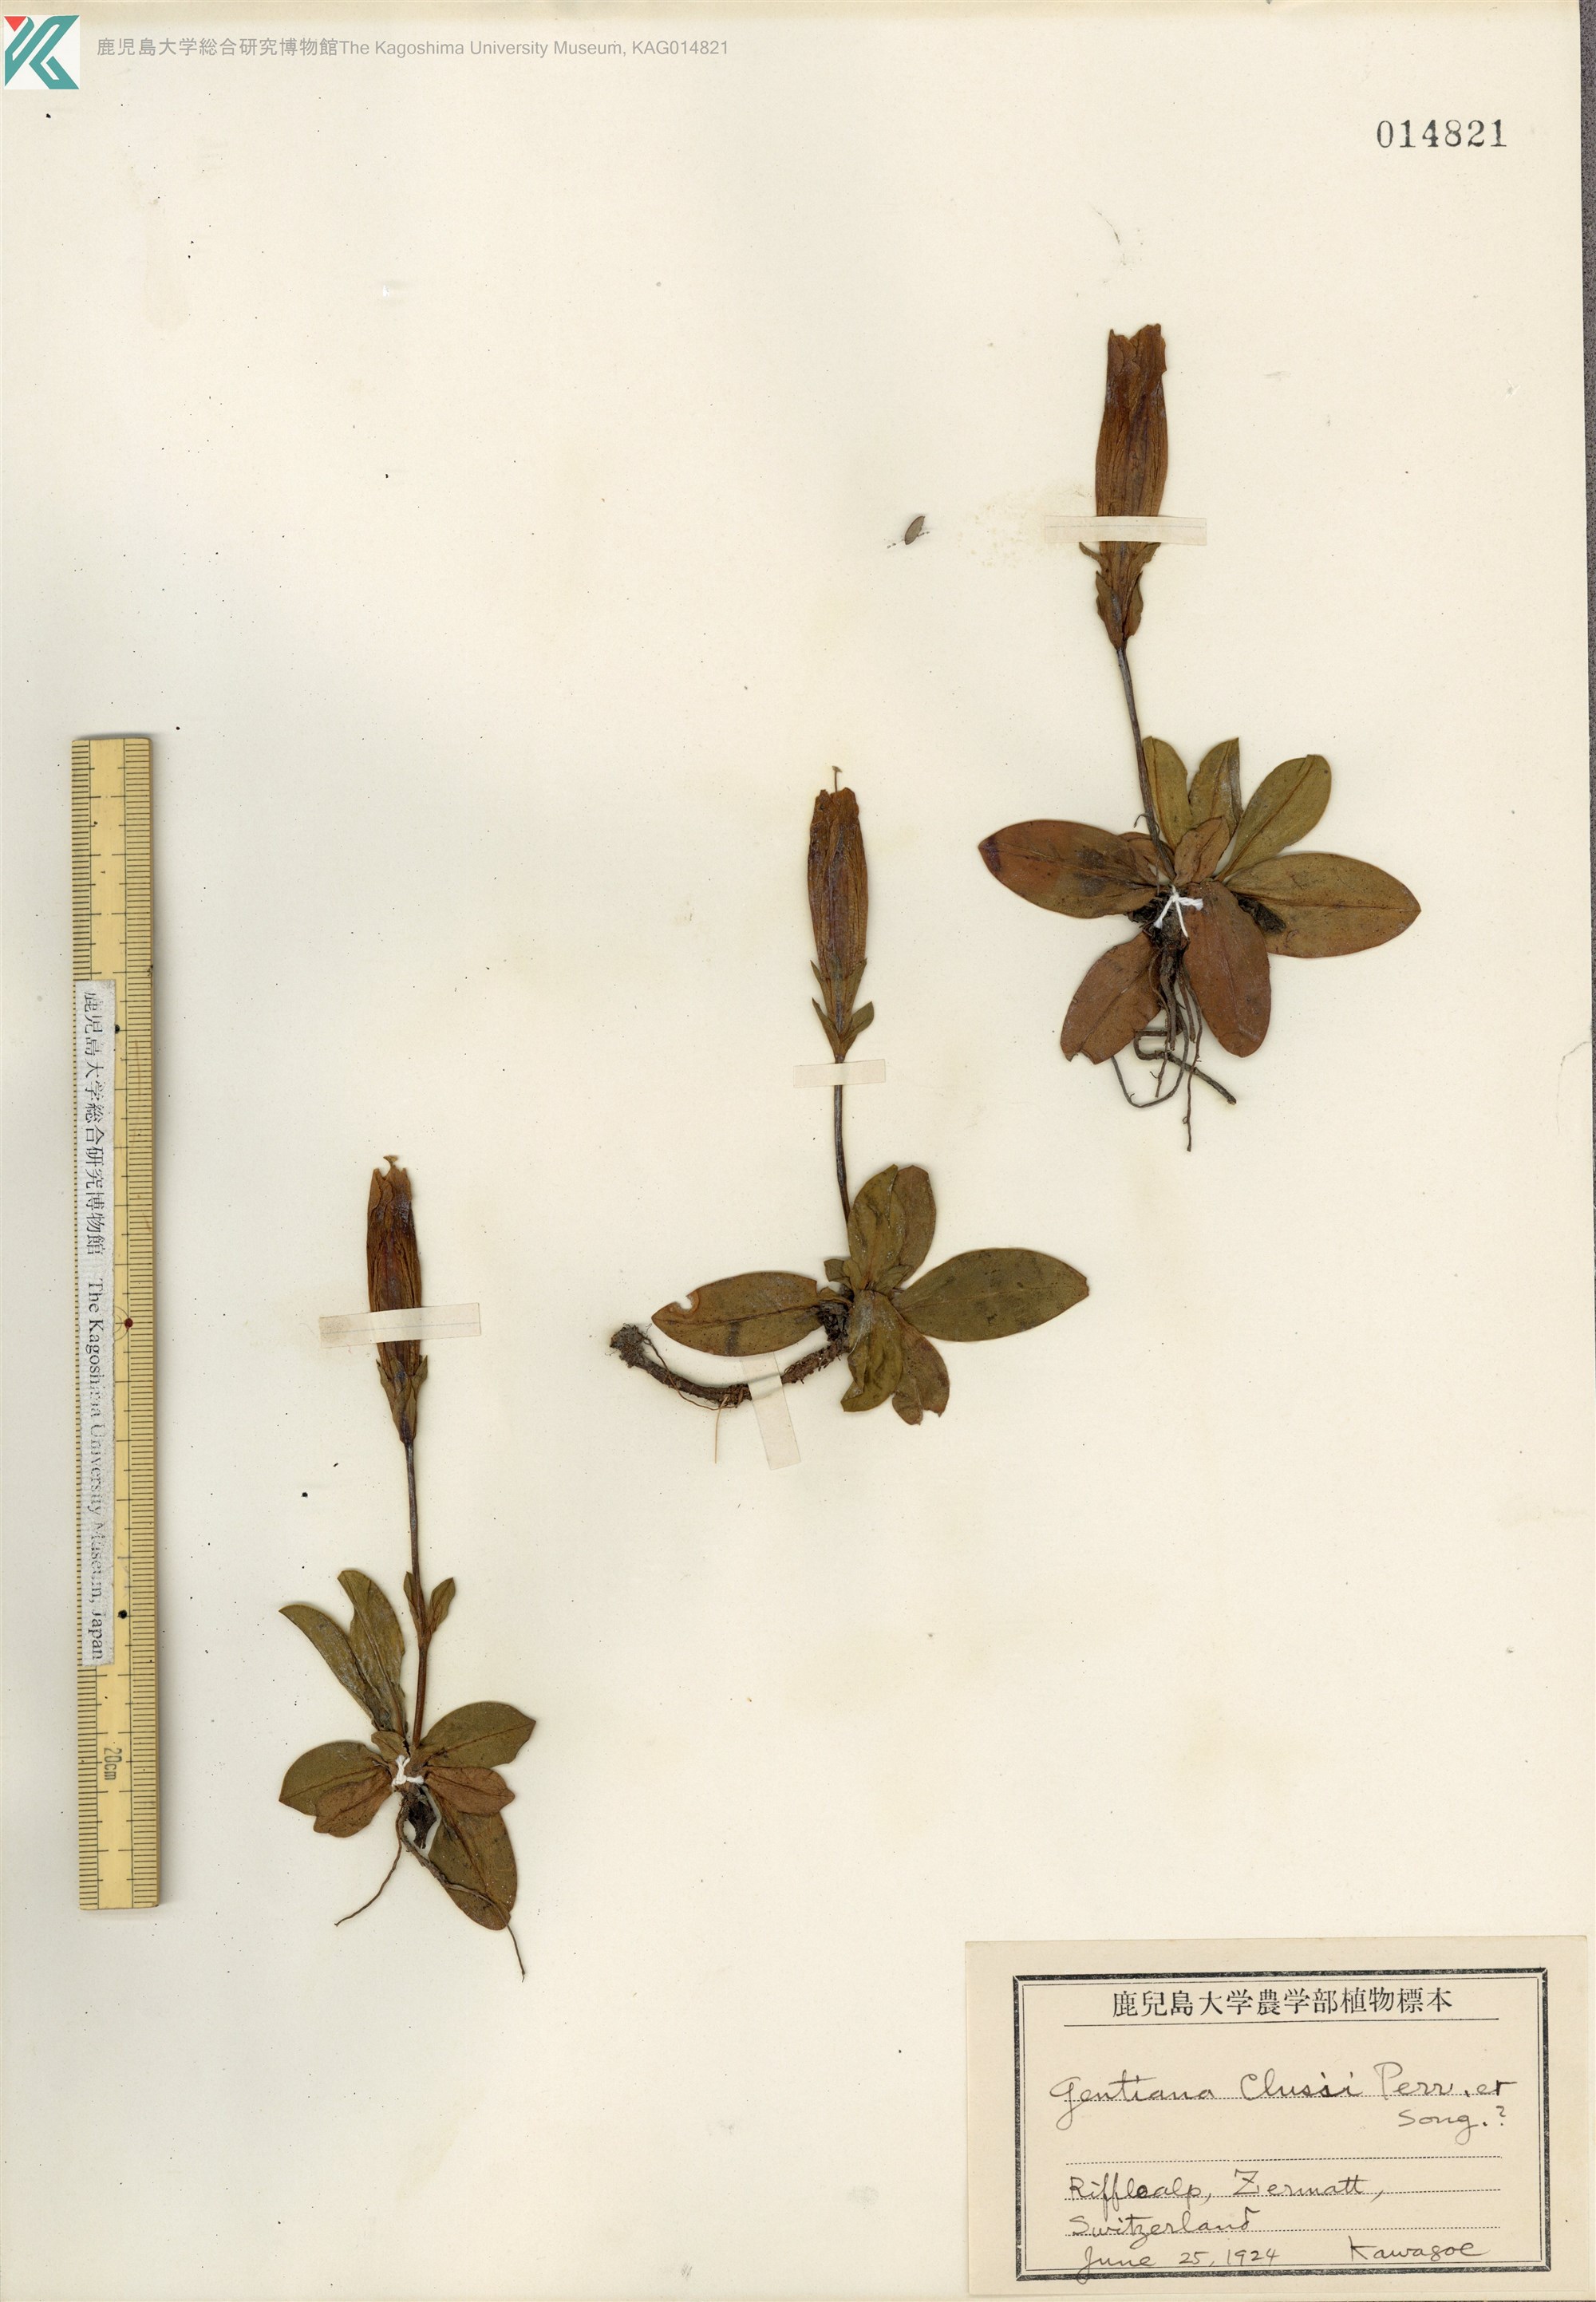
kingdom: Plantae
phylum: Tracheophyta
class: Magnoliopsida
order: Gentianales
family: Gentianaceae
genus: Gentiana
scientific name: Gentiana clusii
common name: Trumpet gentian
